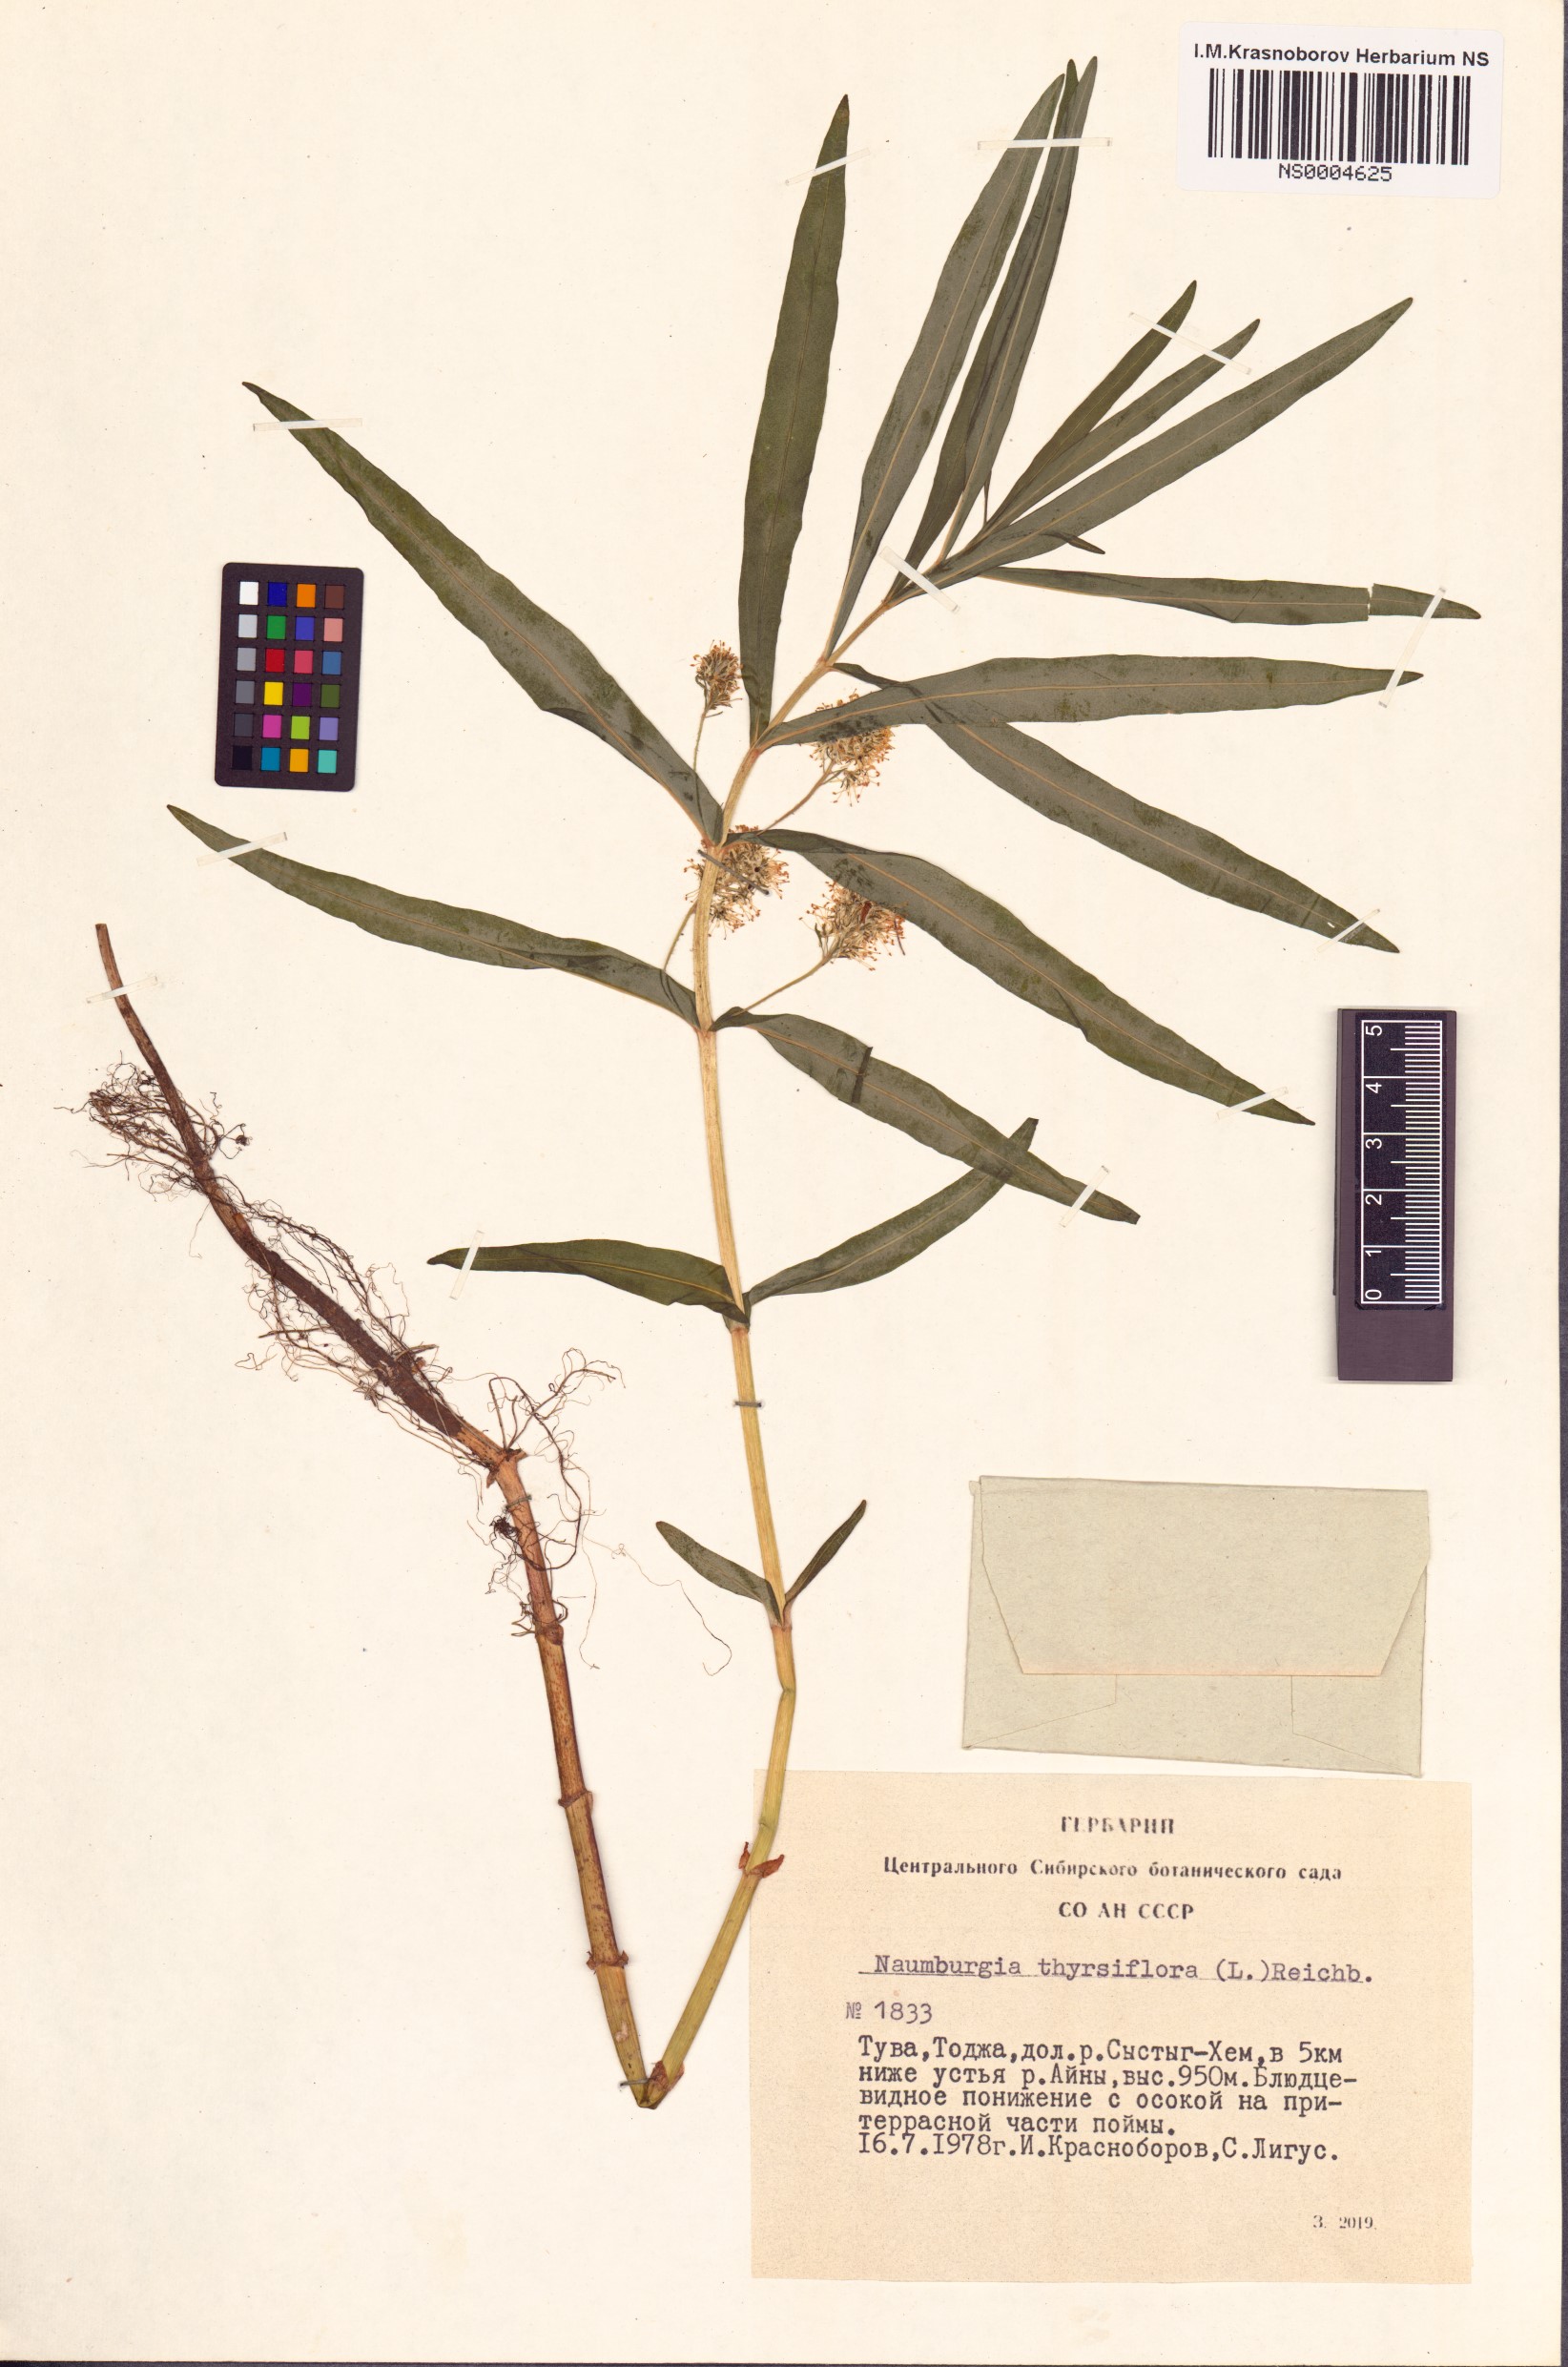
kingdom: Plantae
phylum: Tracheophyta
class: Magnoliopsida
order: Ericales
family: Primulaceae
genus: Lysimachia
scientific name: Lysimachia thyrsiflora
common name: Tufted loosestrife
